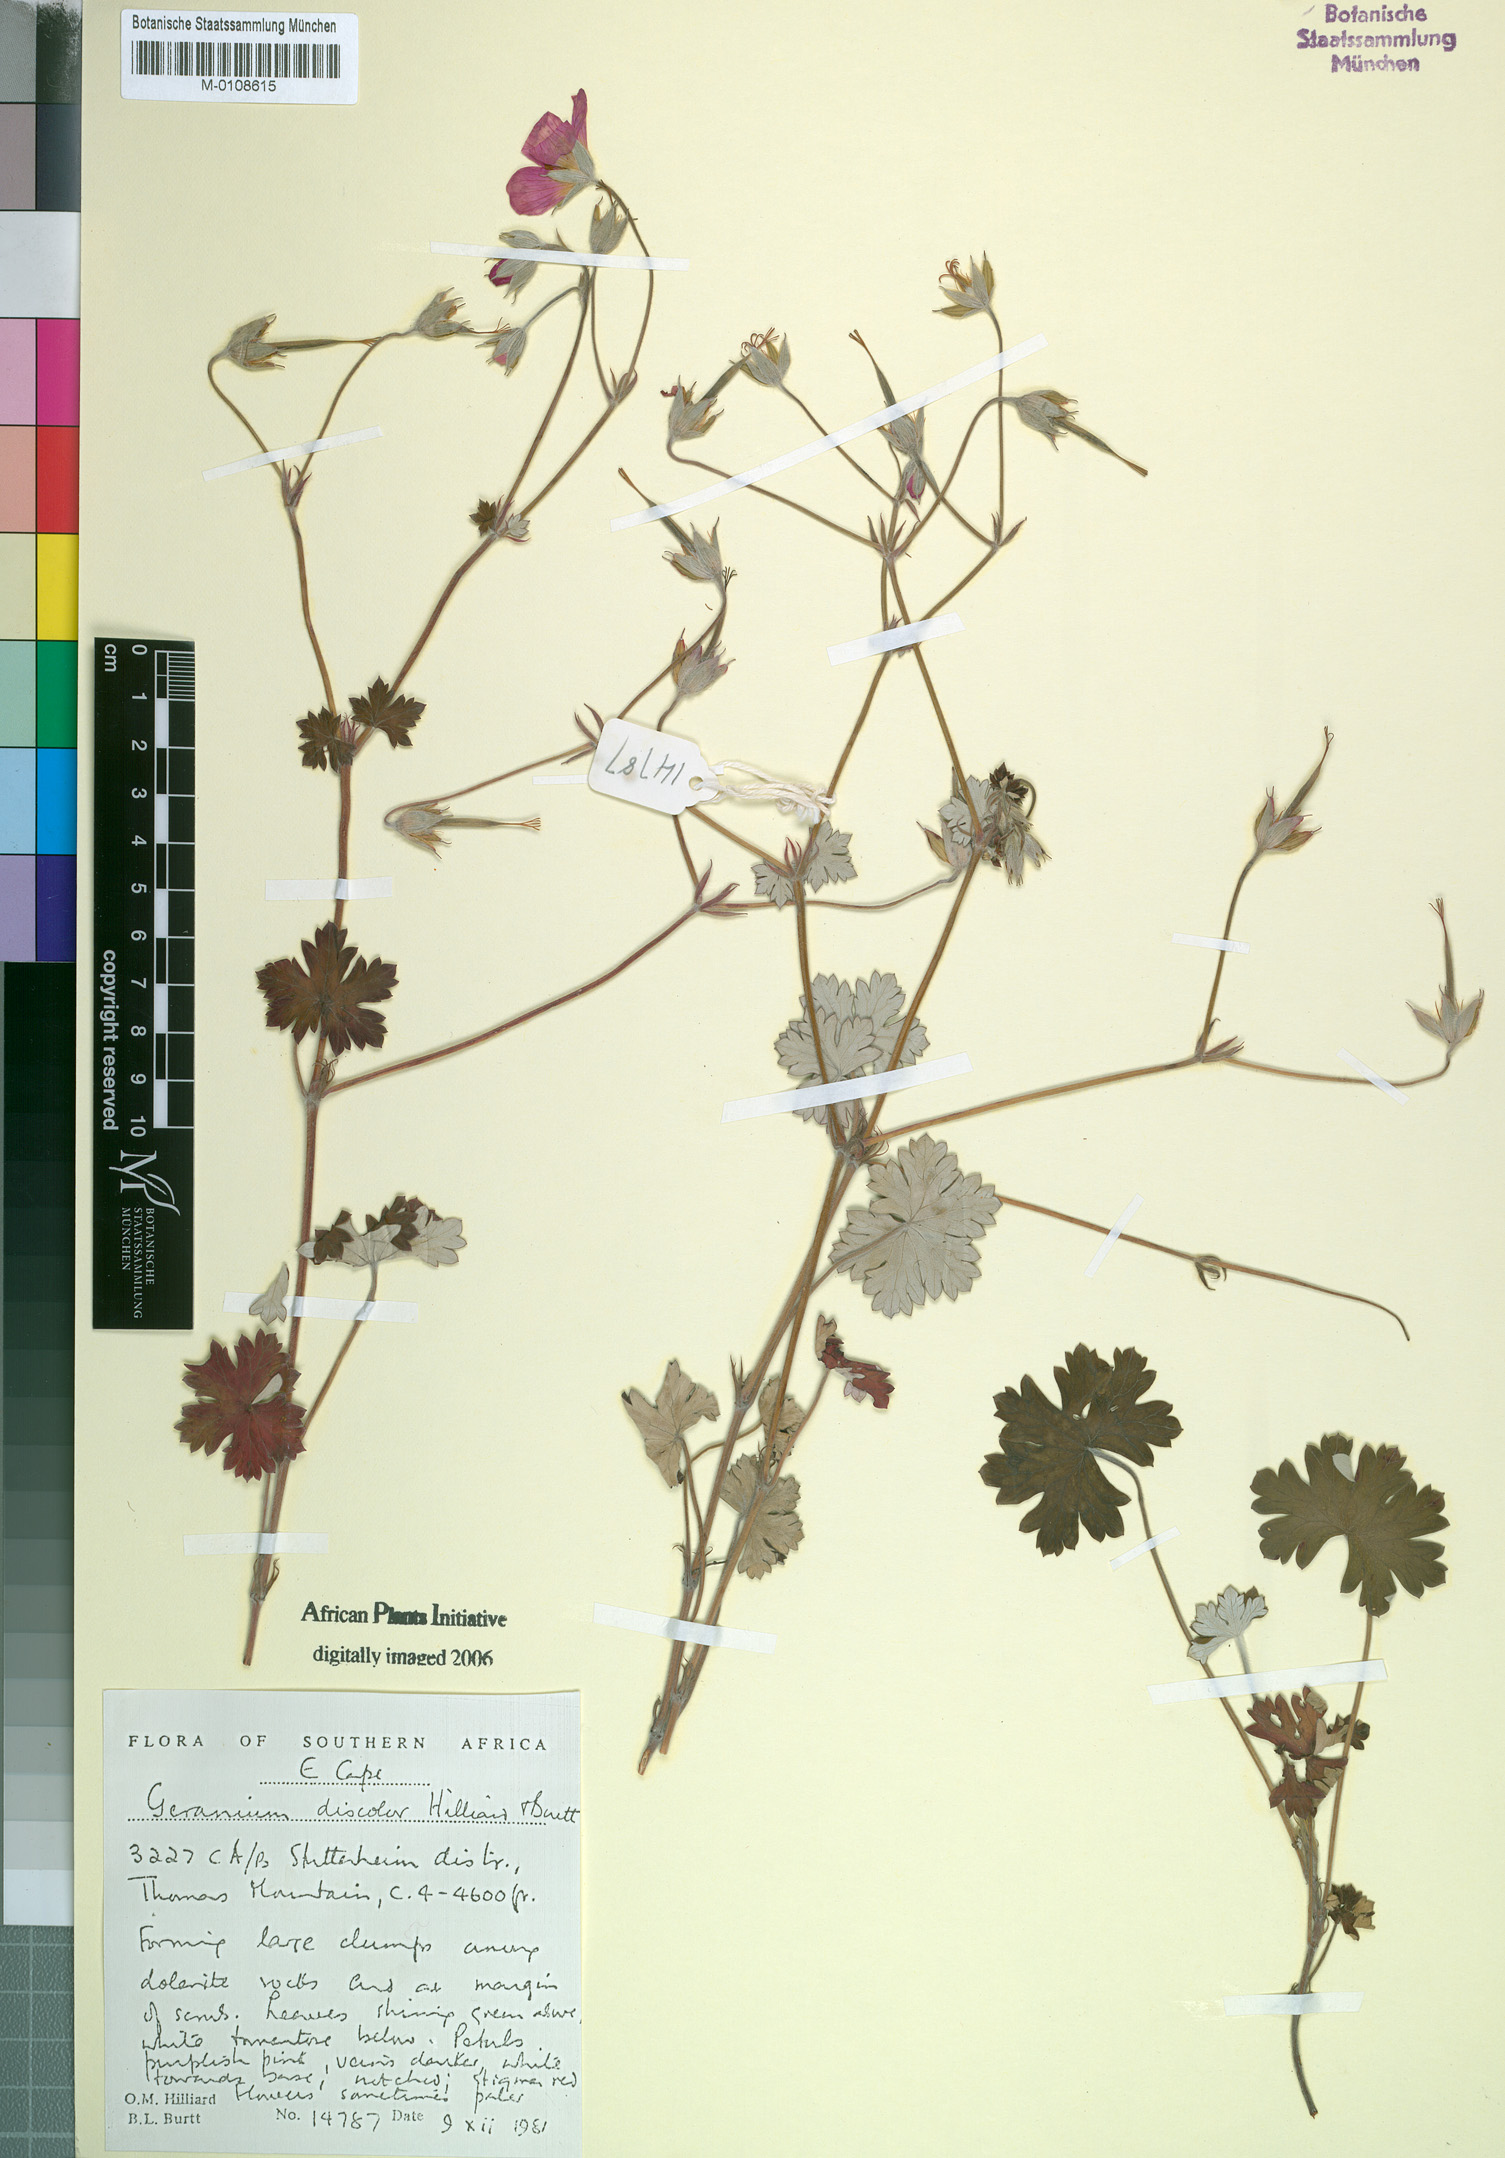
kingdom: Plantae
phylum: Tracheophyta
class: Magnoliopsida
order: Geraniales
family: Geraniaceae
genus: Geranium
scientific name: Geranium discolor
